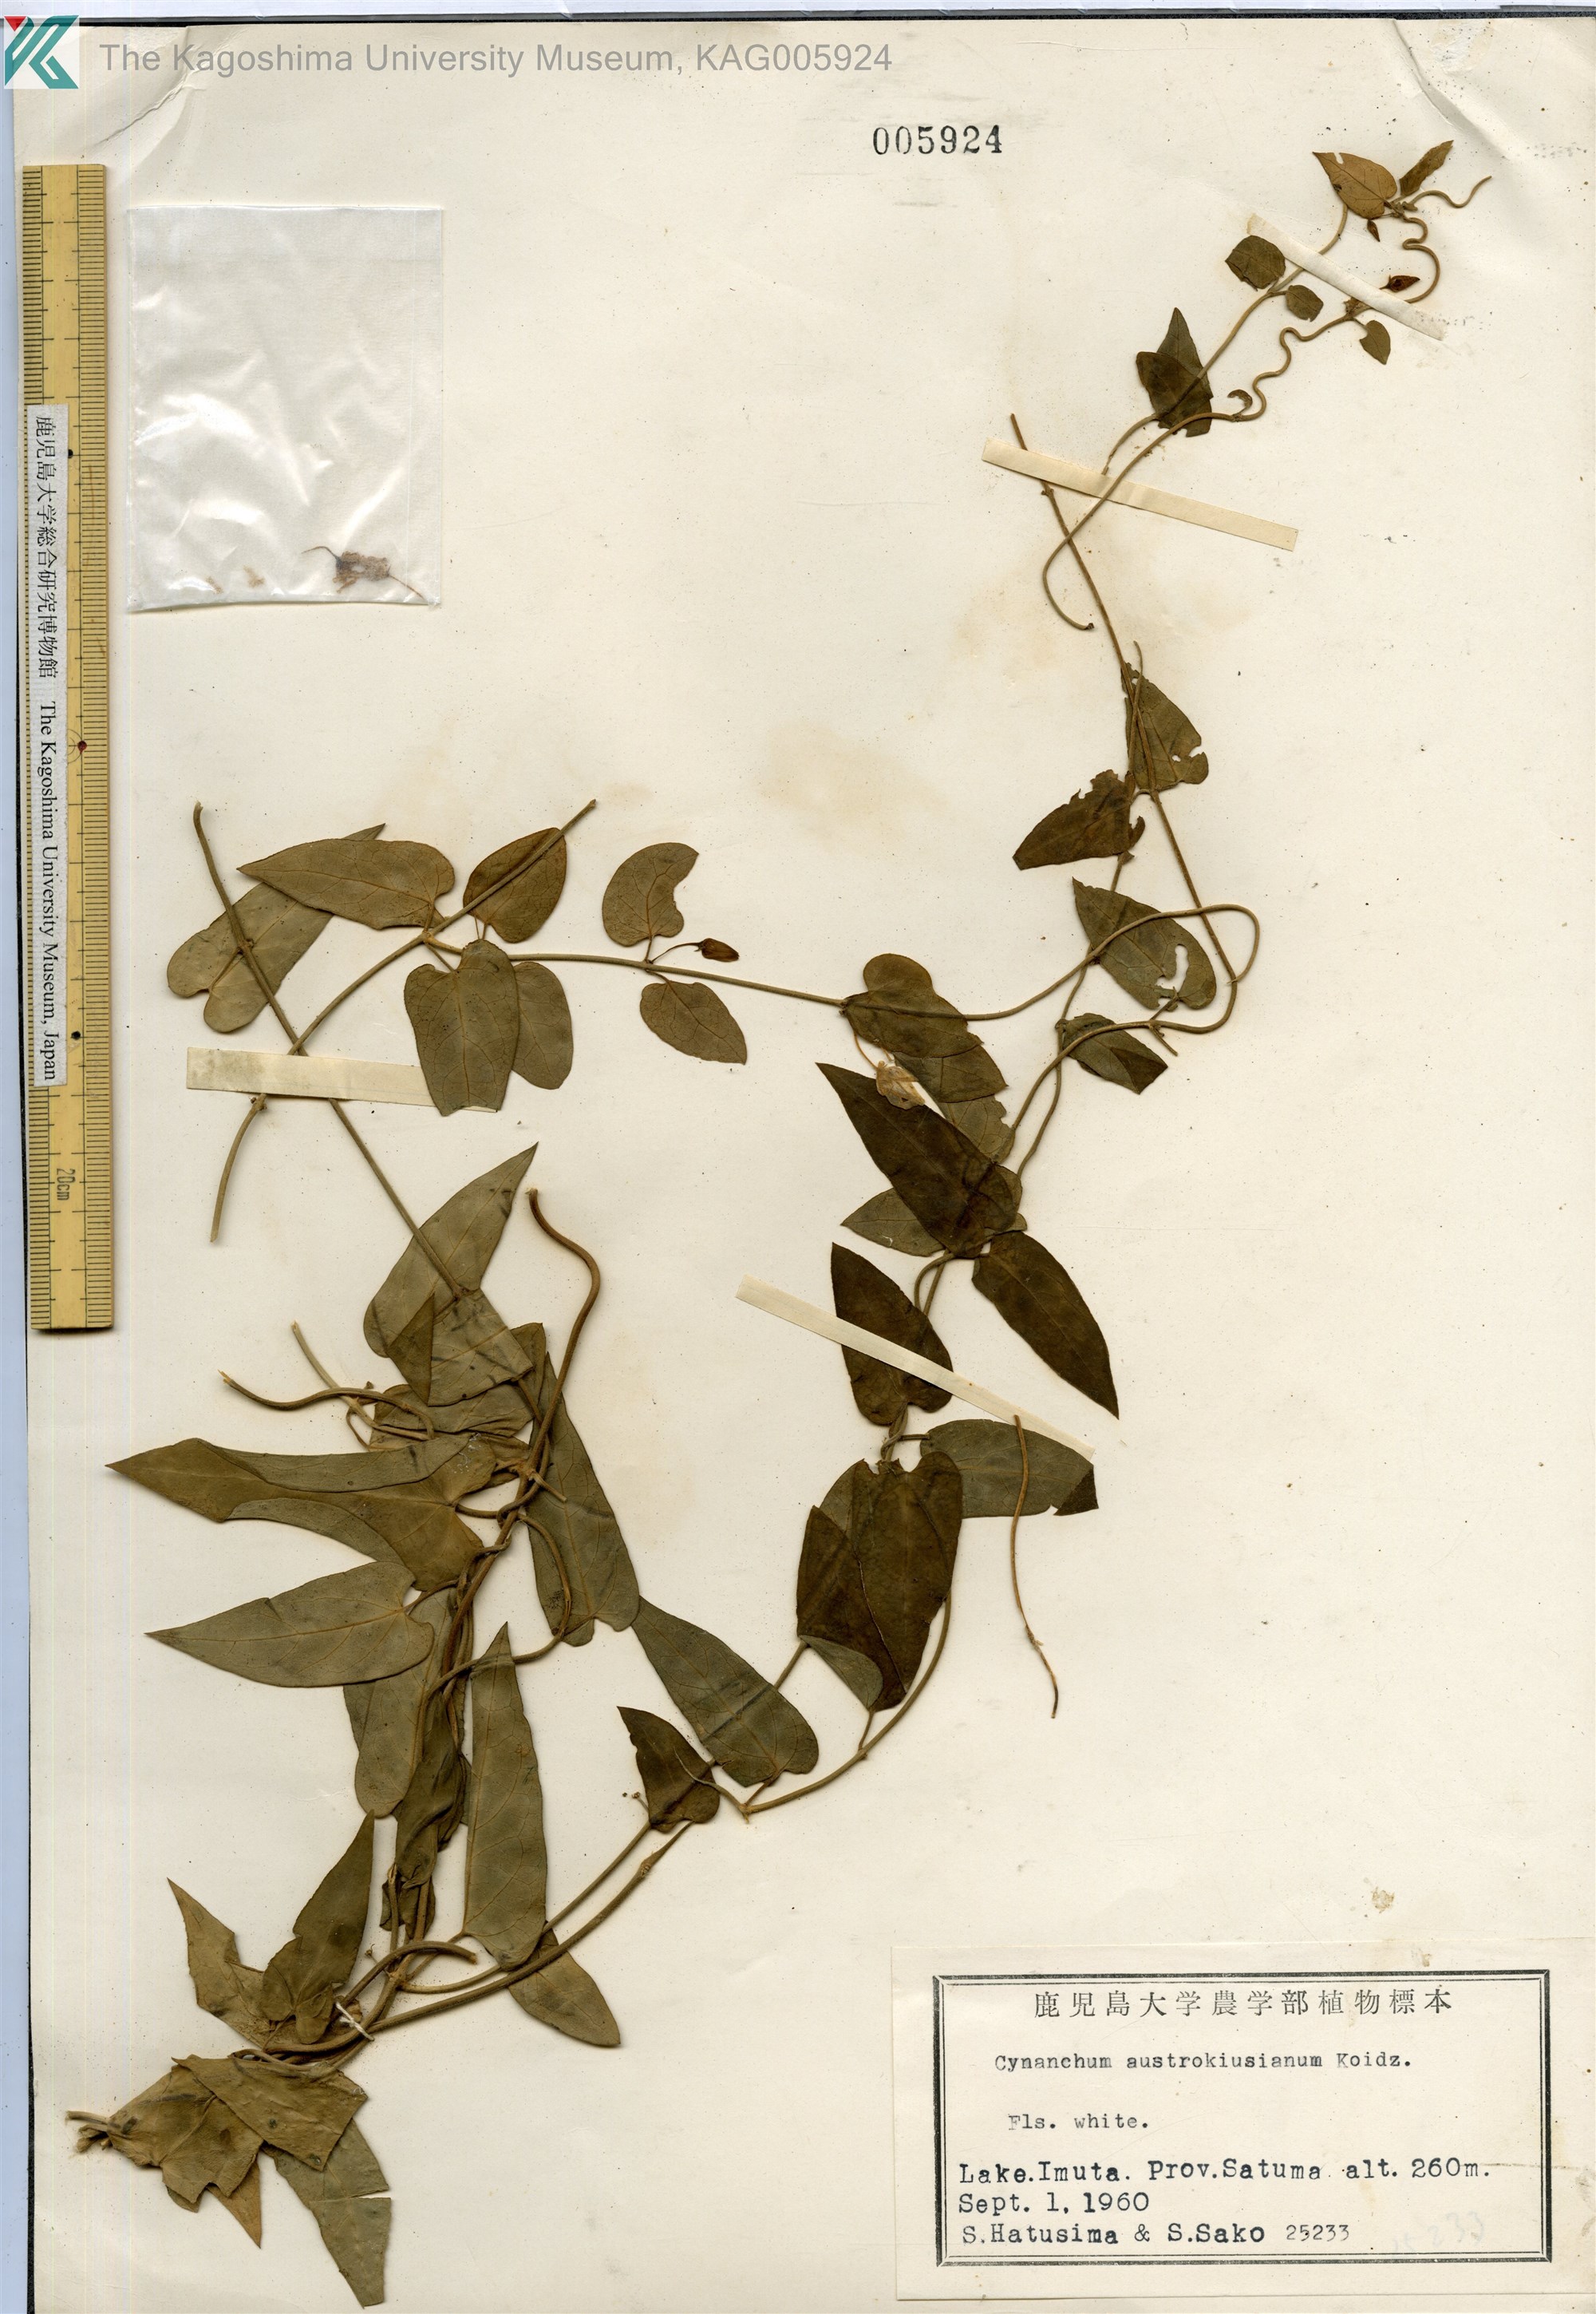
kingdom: Plantae
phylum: Tracheophyta
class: Magnoliopsida
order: Gentianales
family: Apocynaceae
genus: Vincetoxicum
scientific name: Vincetoxicum austrokiusianum
